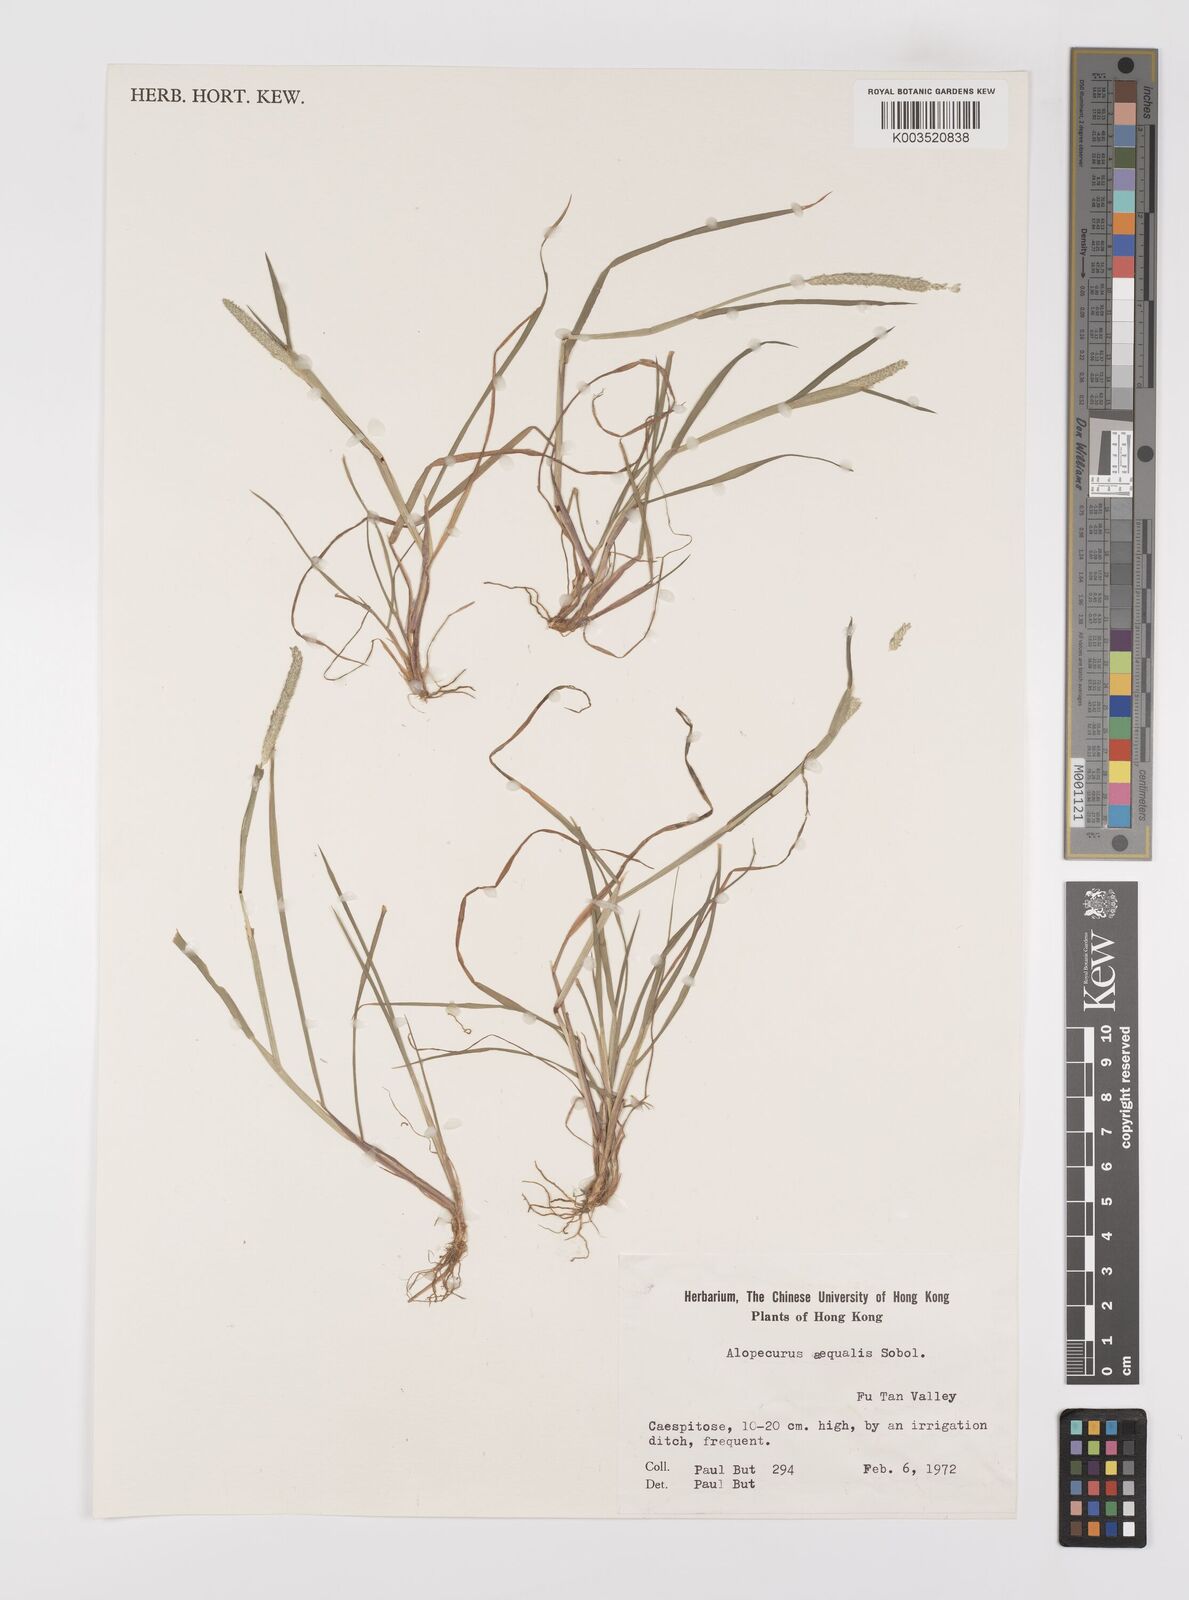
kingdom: Plantae
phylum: Tracheophyta
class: Liliopsida
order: Poales
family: Poaceae
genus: Alopecurus
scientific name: Alopecurus aequalis
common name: Orange foxtail
